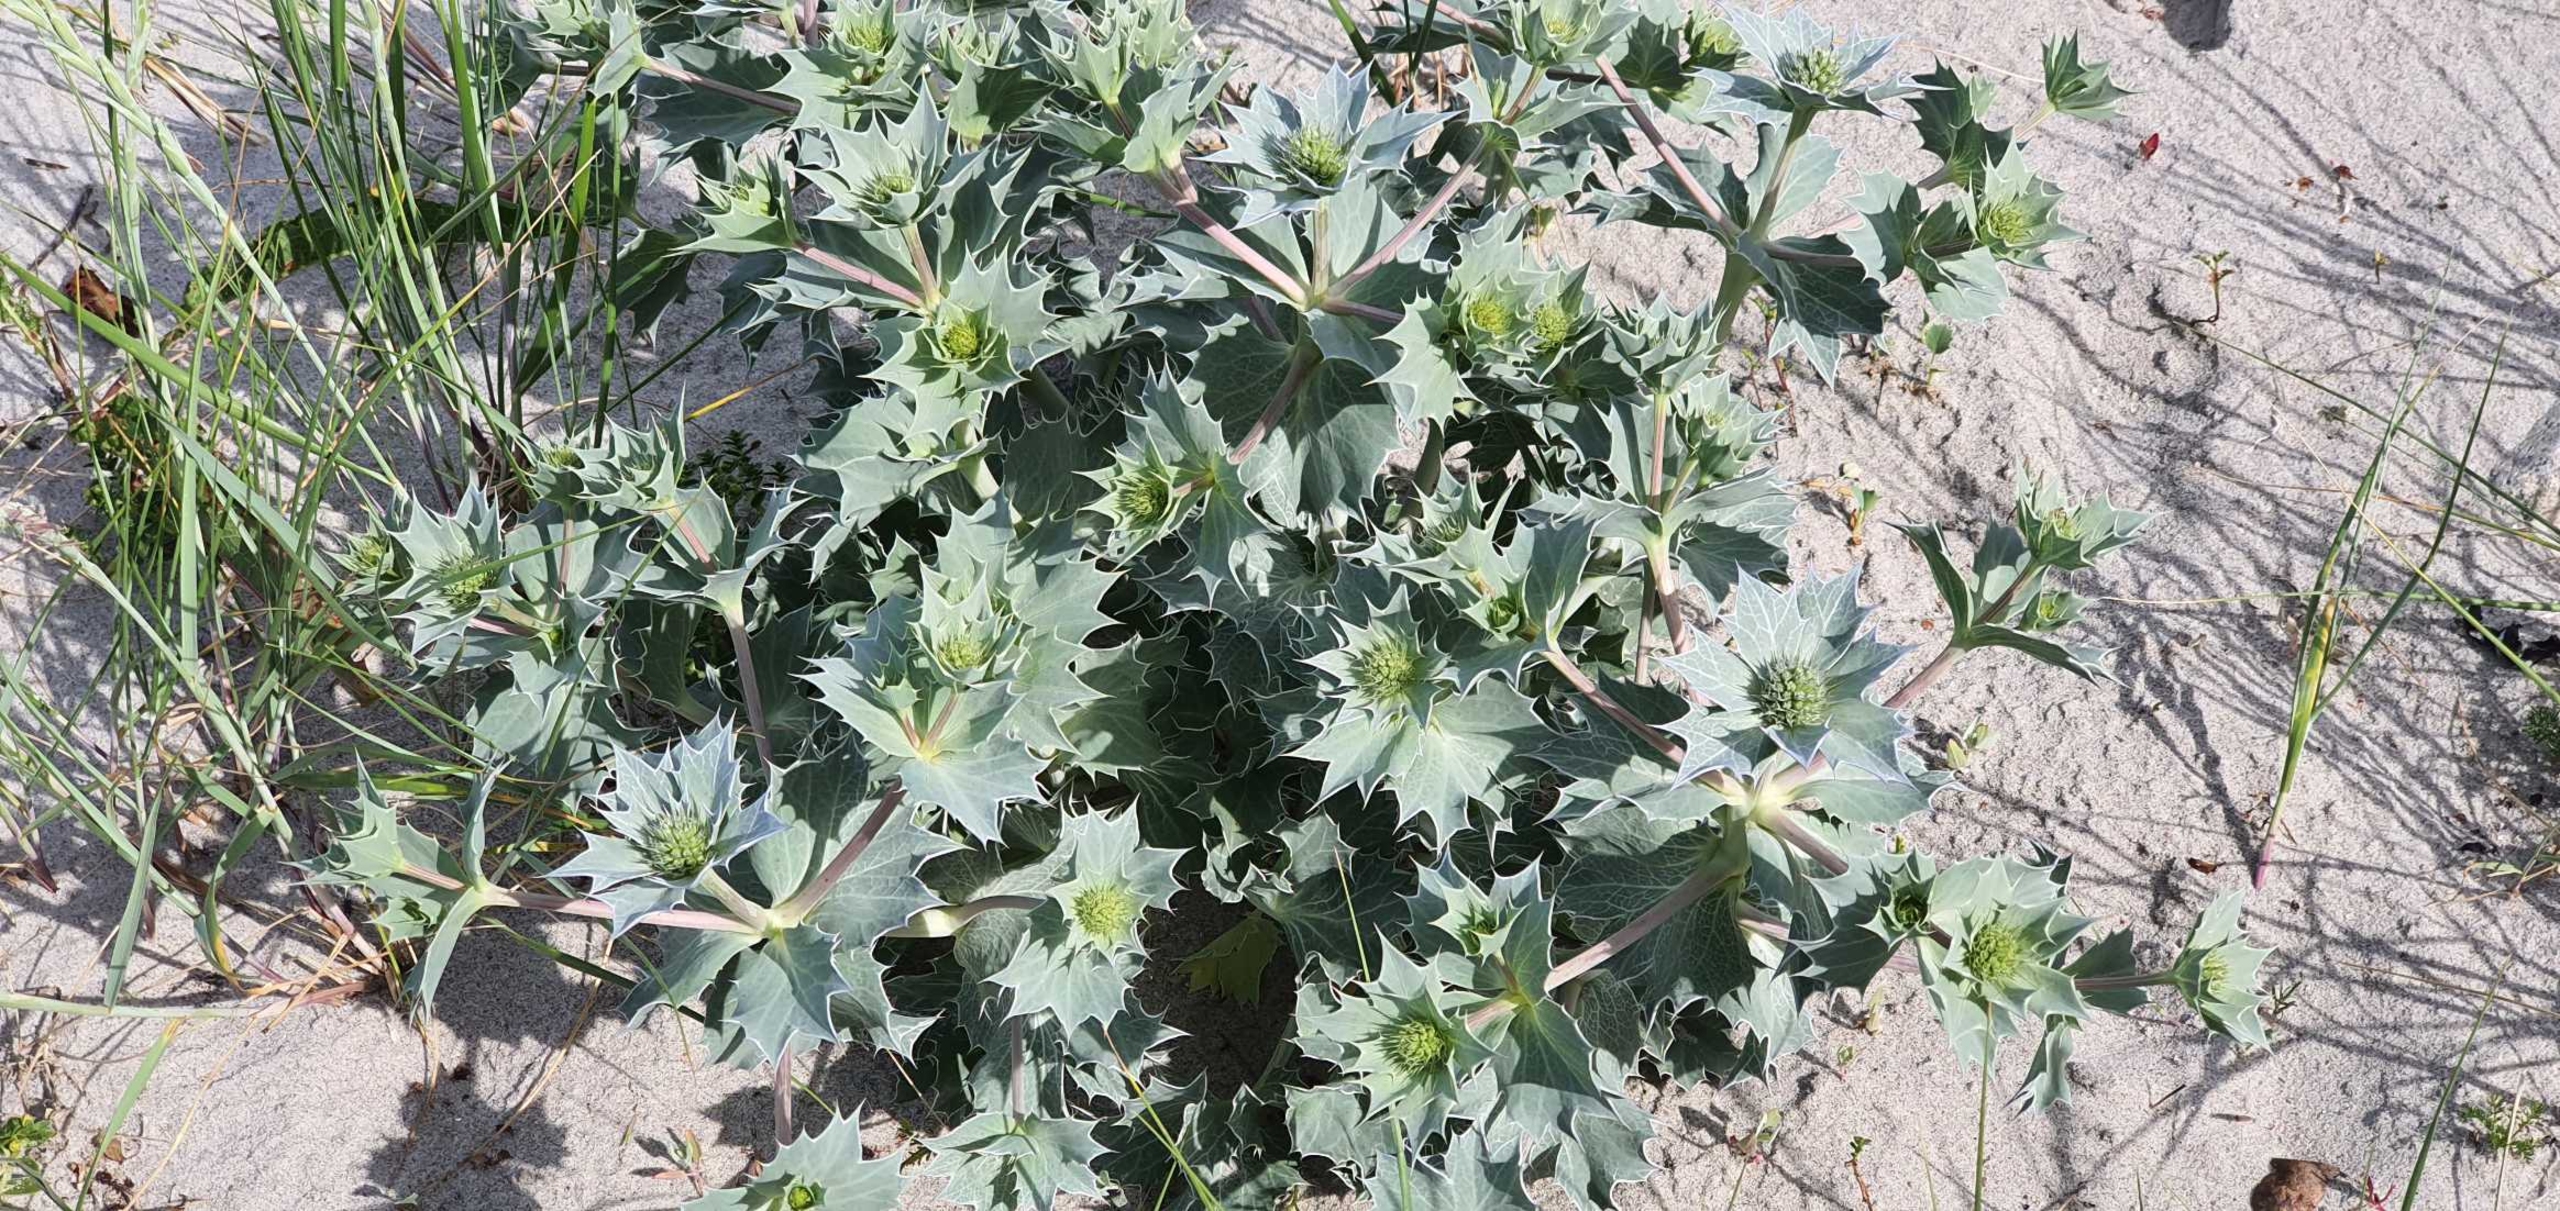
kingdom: Plantae
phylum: Tracheophyta
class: Magnoliopsida
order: Apiales
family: Apiaceae
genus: Eryngium
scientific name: Eryngium maritimum
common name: Strand-mandstro
